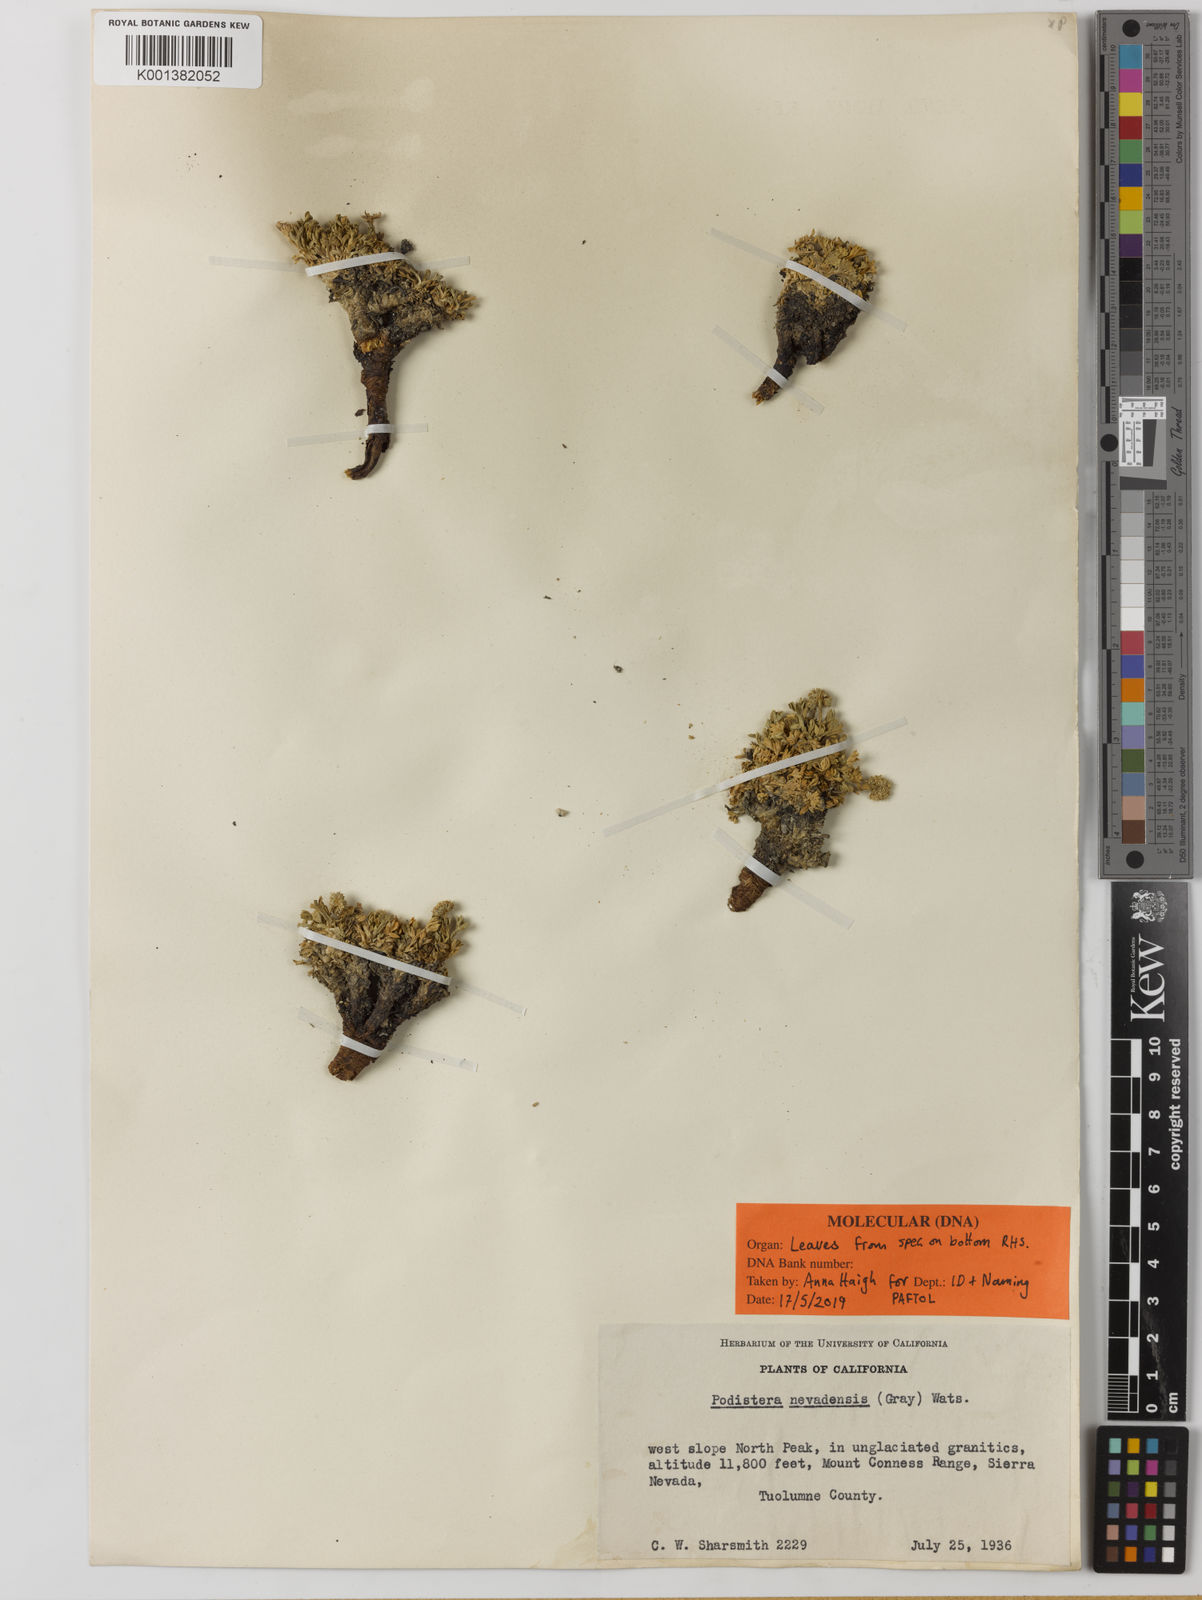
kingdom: Plantae
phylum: Tracheophyta
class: Magnoliopsida
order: Apiales
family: Apiaceae
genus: Podistera
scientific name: Podistera nevadensis
